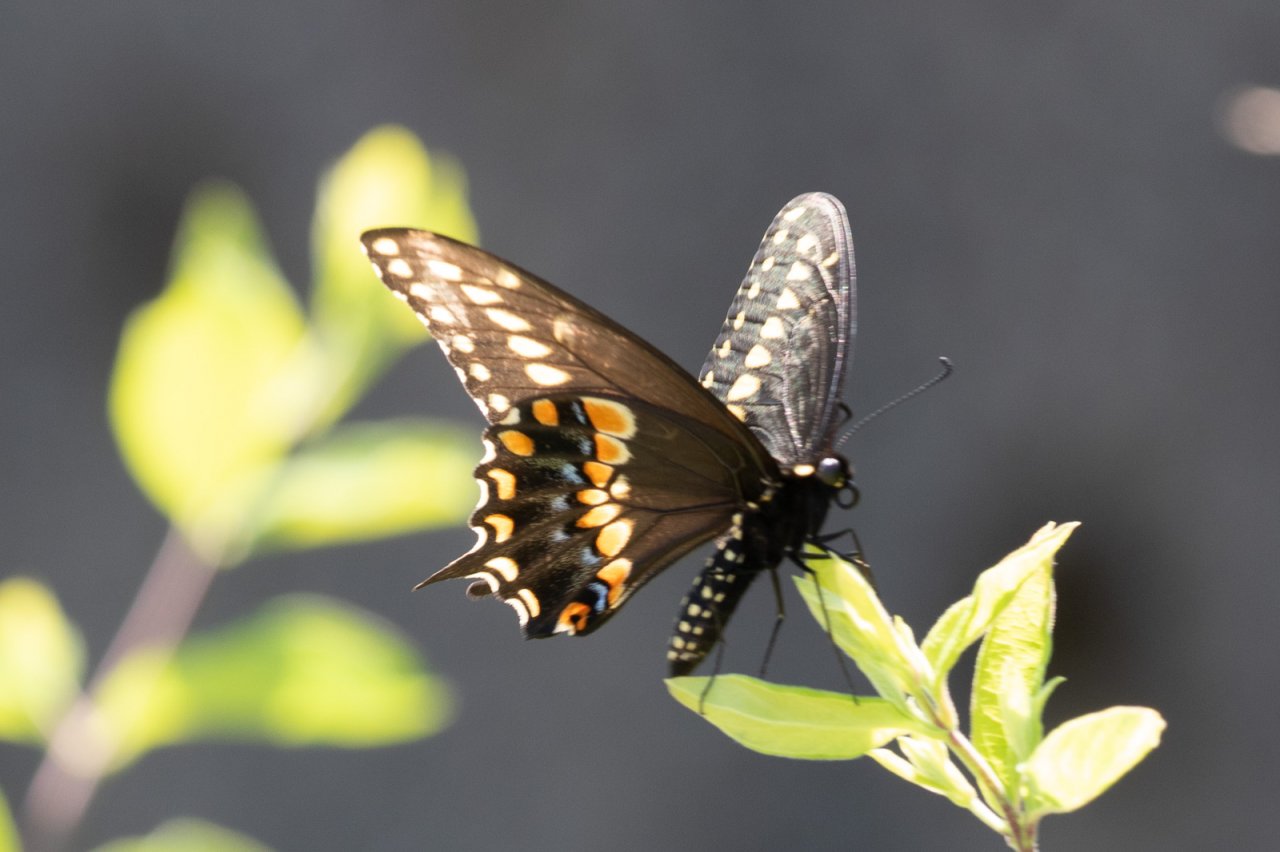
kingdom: Animalia
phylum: Arthropoda
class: Insecta
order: Lepidoptera
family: Papilionidae
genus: Papilio
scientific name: Papilio polyxenes
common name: Black Swallowtail
